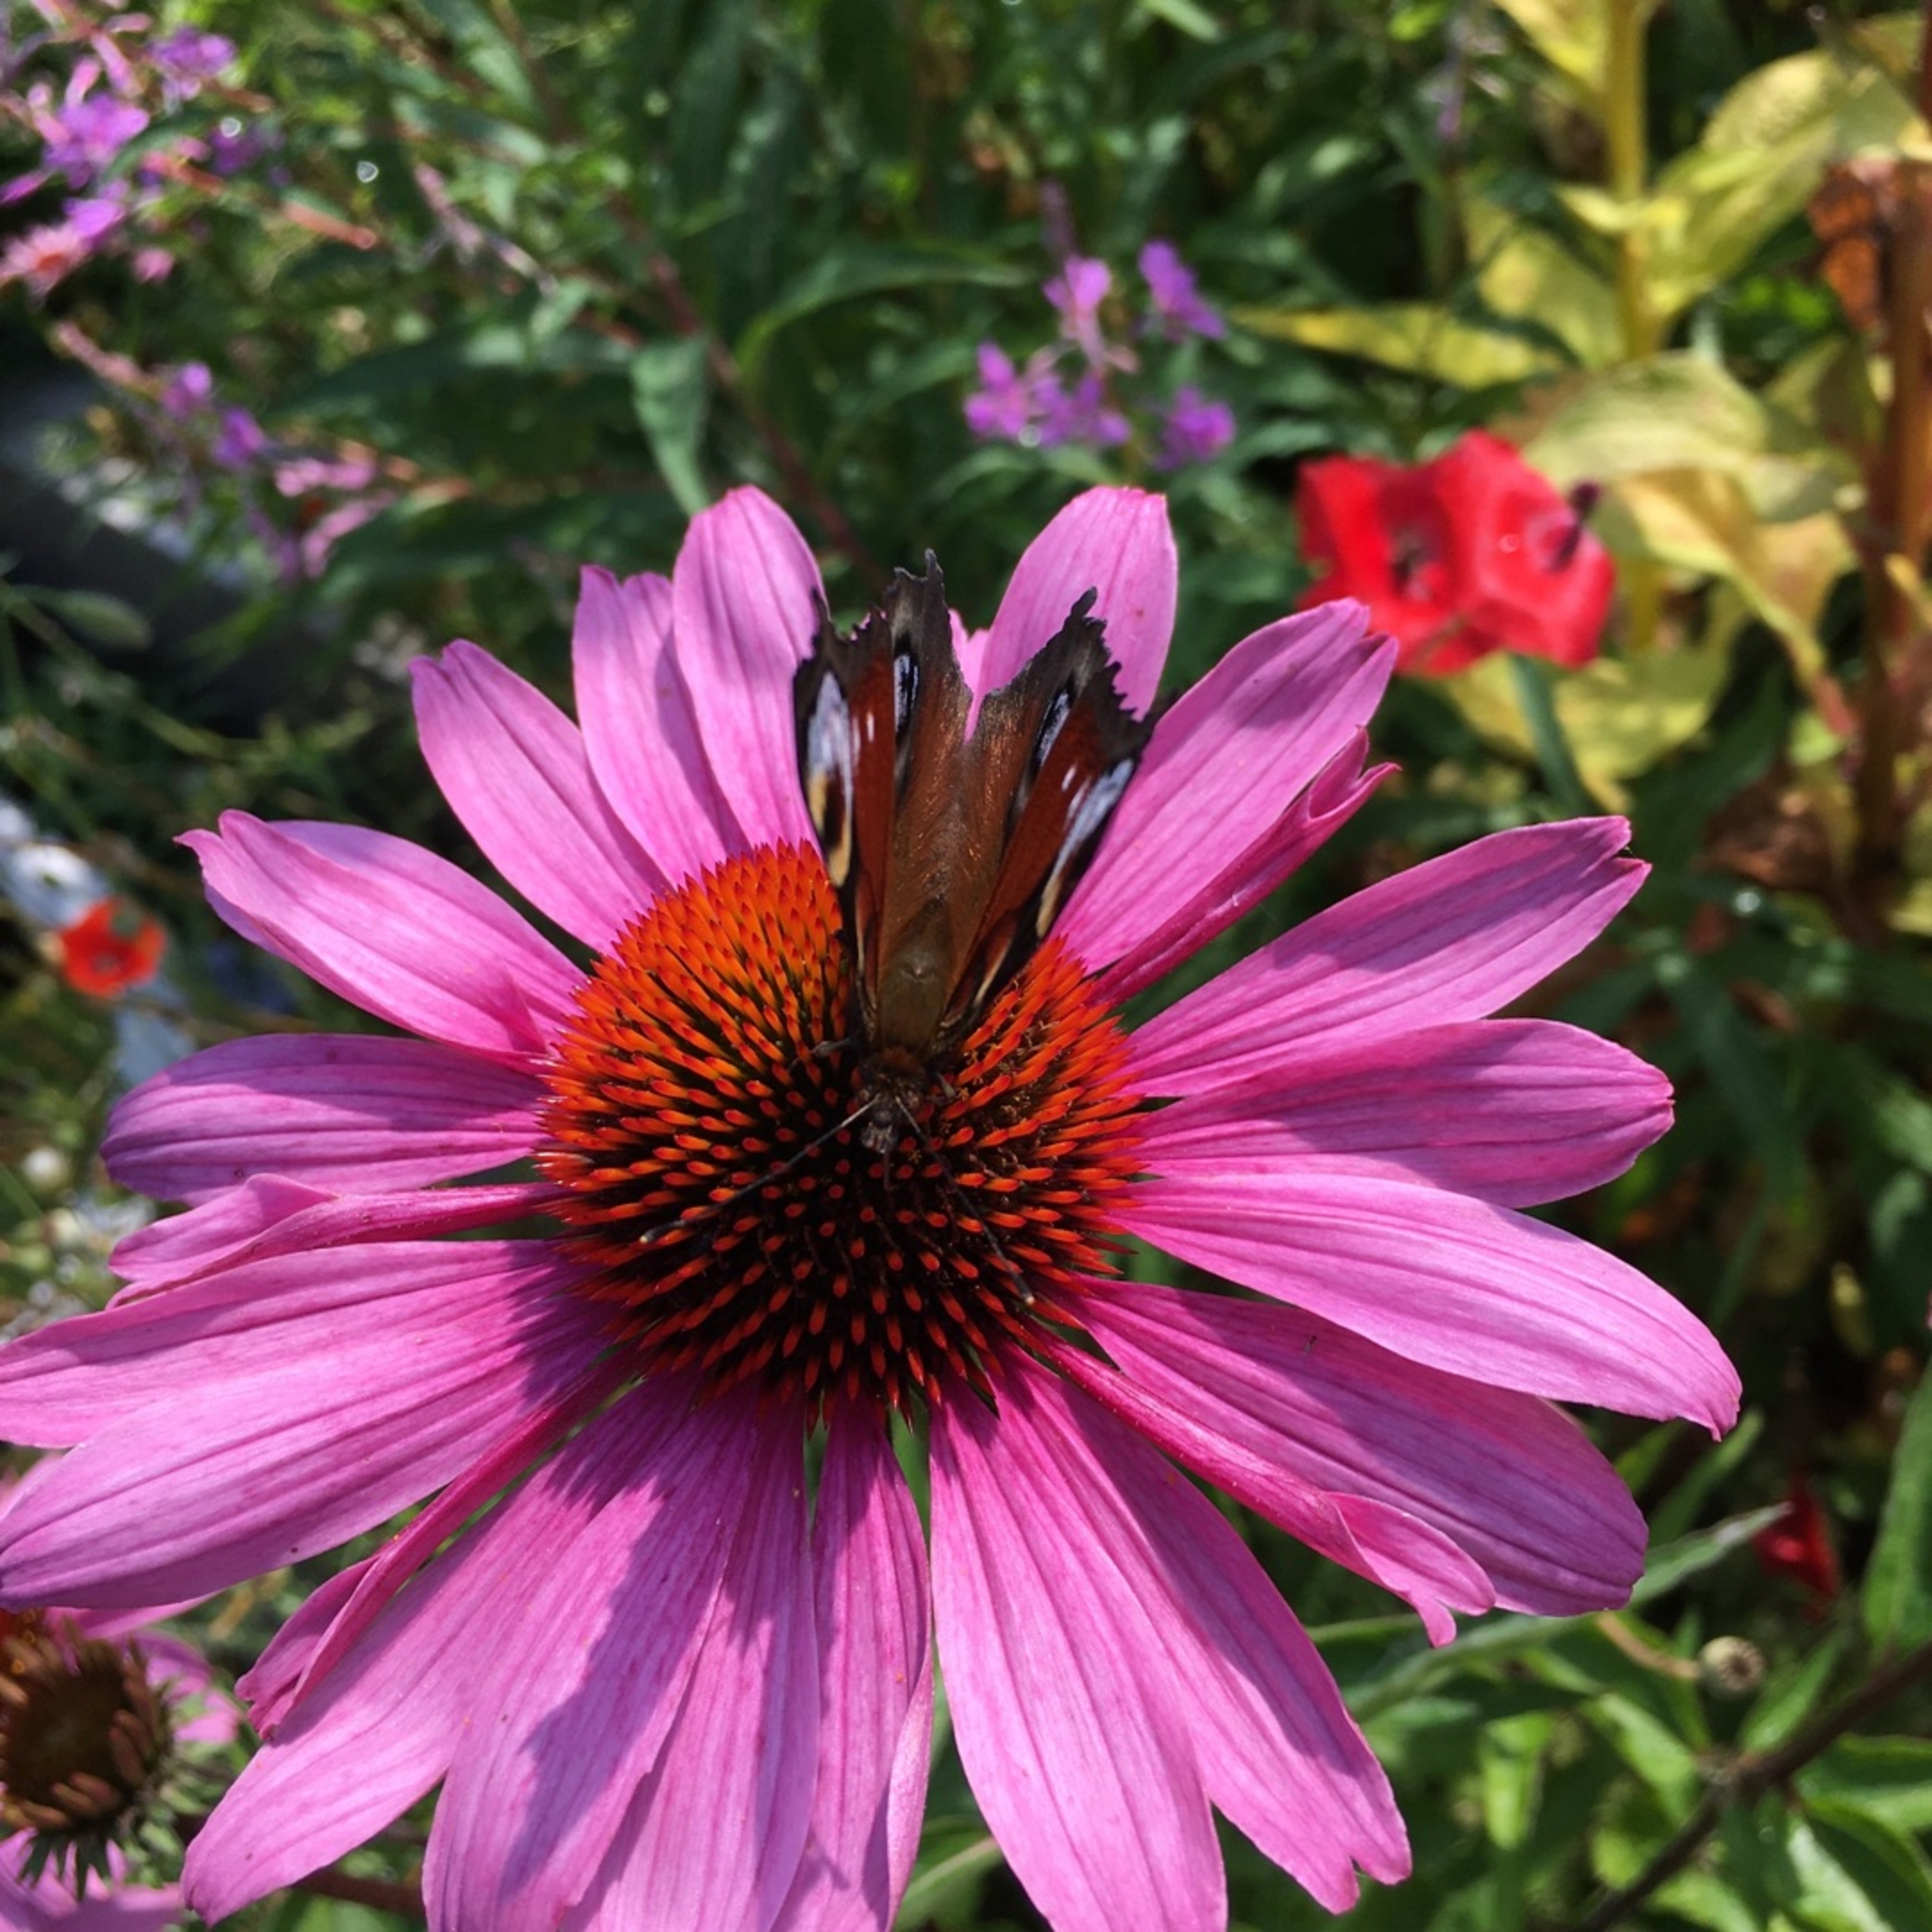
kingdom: Animalia
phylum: Arthropoda
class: Insecta
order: Lepidoptera
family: Nymphalidae
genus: Aglais
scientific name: Aglais io
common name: Dagpåfugleøje
